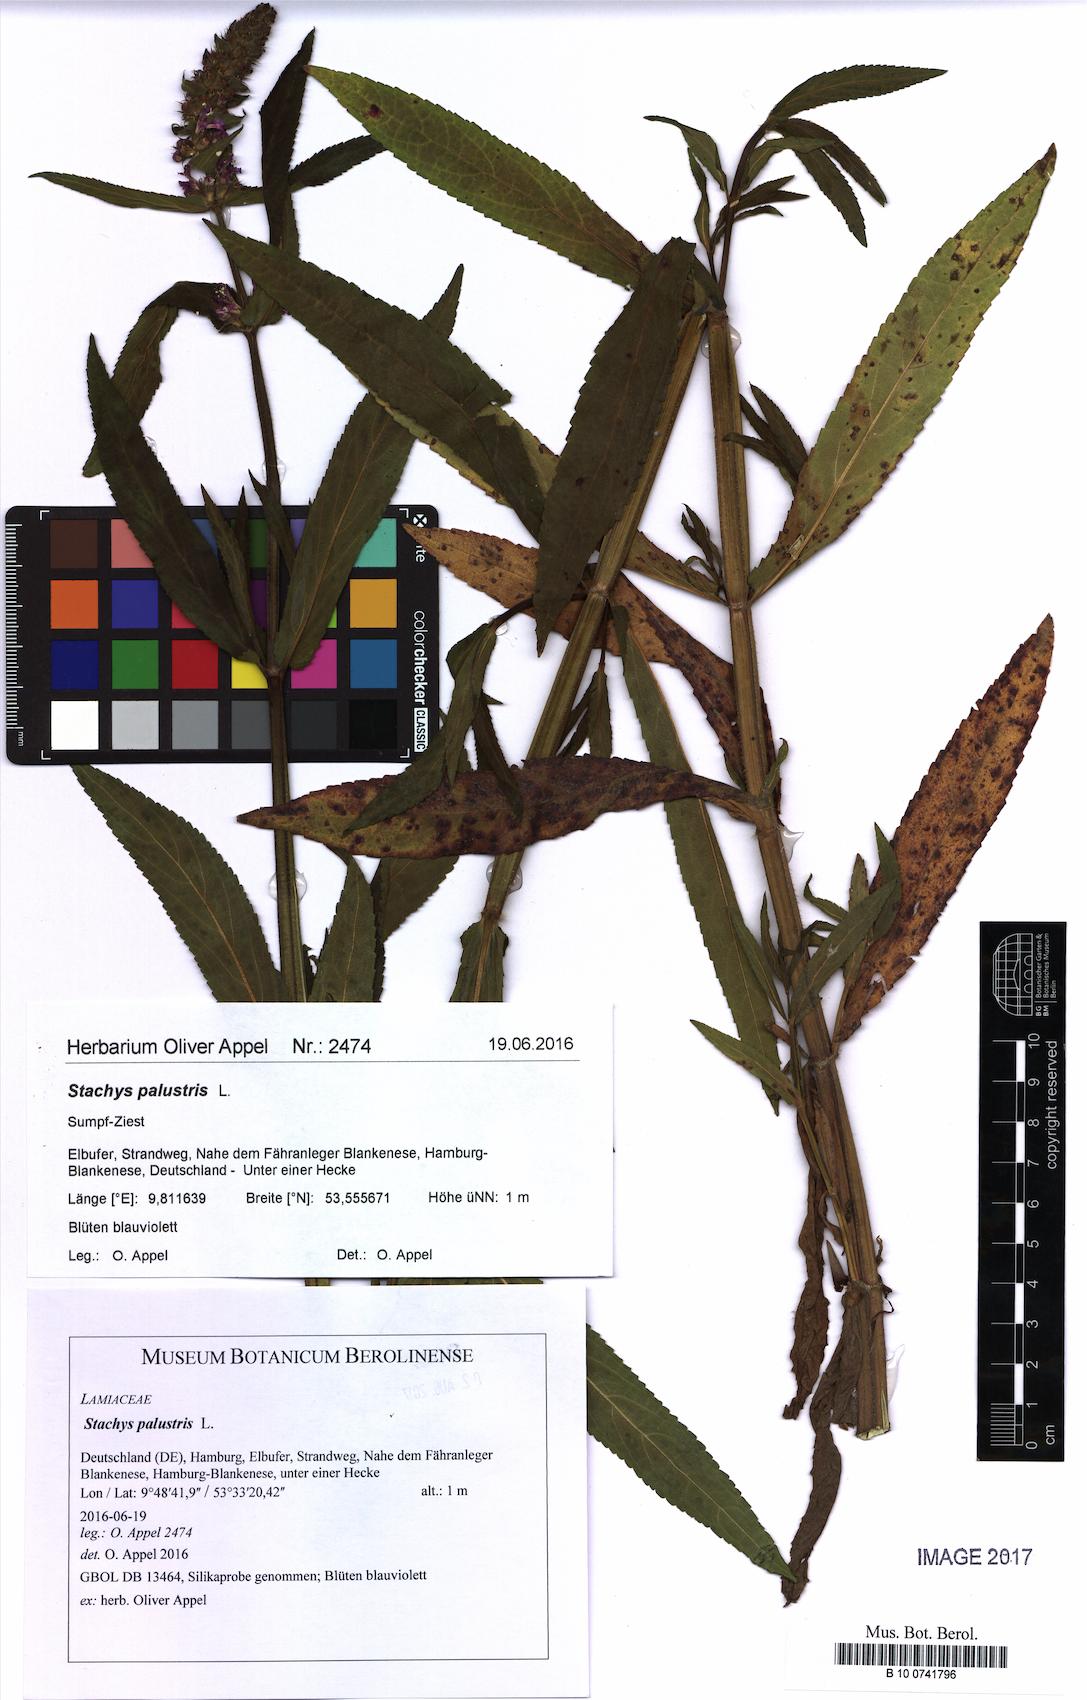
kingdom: Plantae
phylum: Tracheophyta
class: Magnoliopsida
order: Lamiales
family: Lamiaceae
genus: Stachys
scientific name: Stachys palustris
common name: Marsh woundwort
